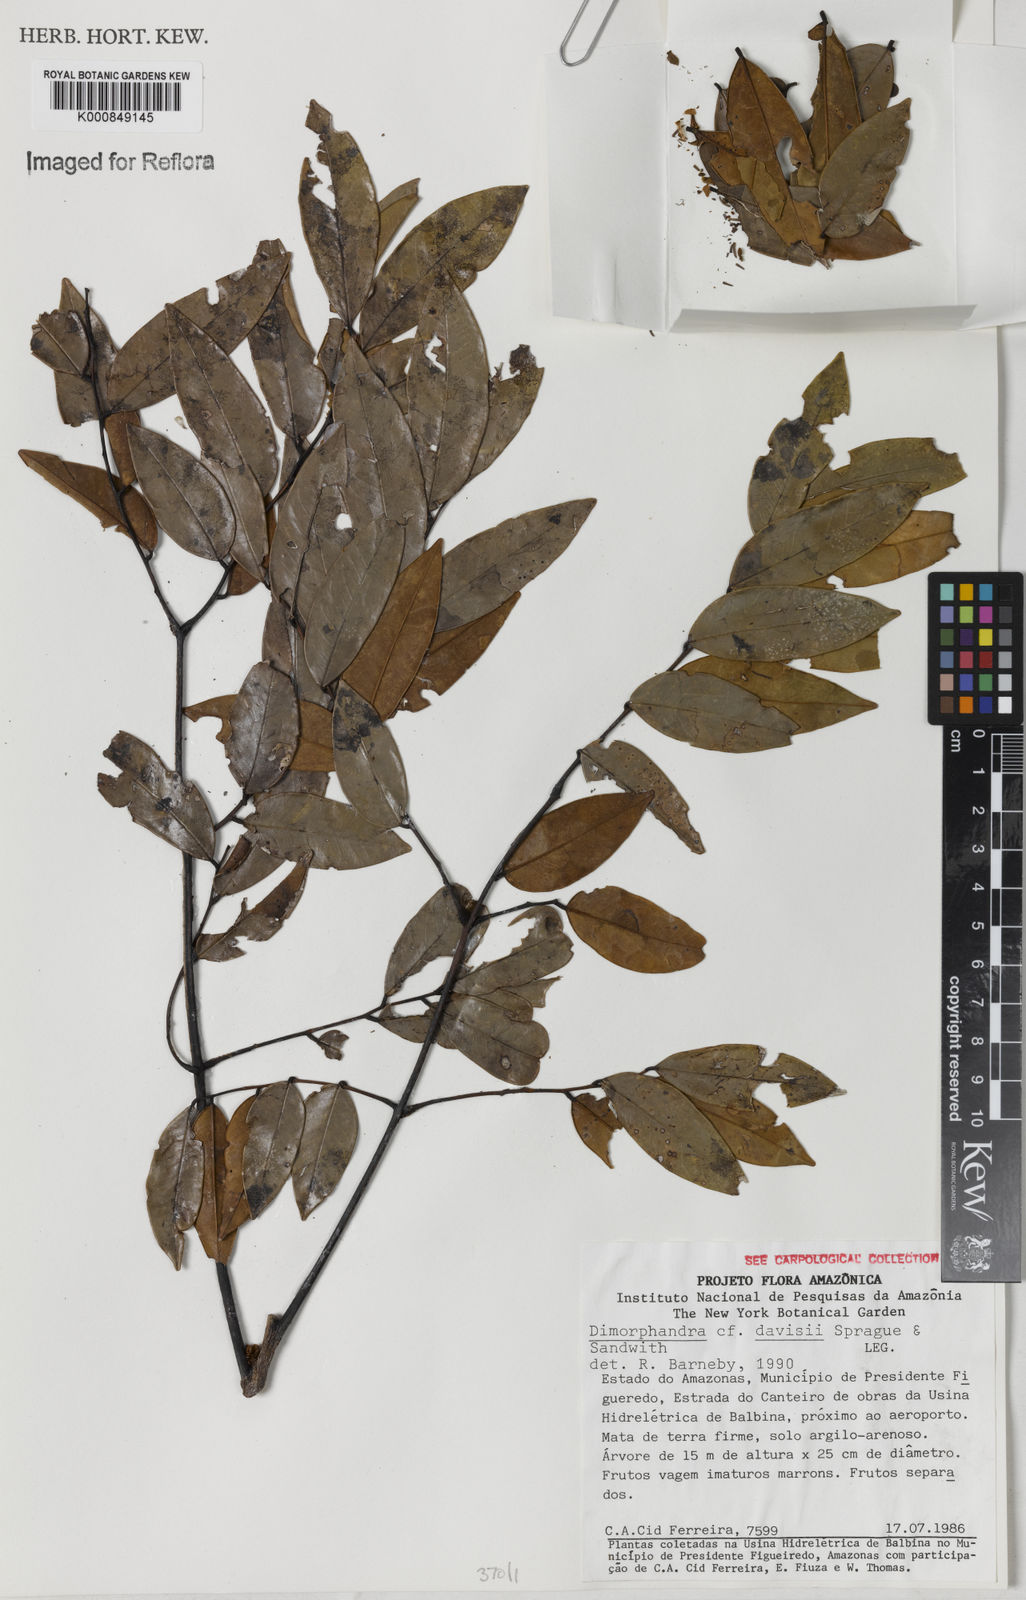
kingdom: Plantae
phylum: Tracheophyta
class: Magnoliopsida
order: Fabales
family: Fabaceae
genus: Dimorphandra
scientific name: Dimorphandra davisii
